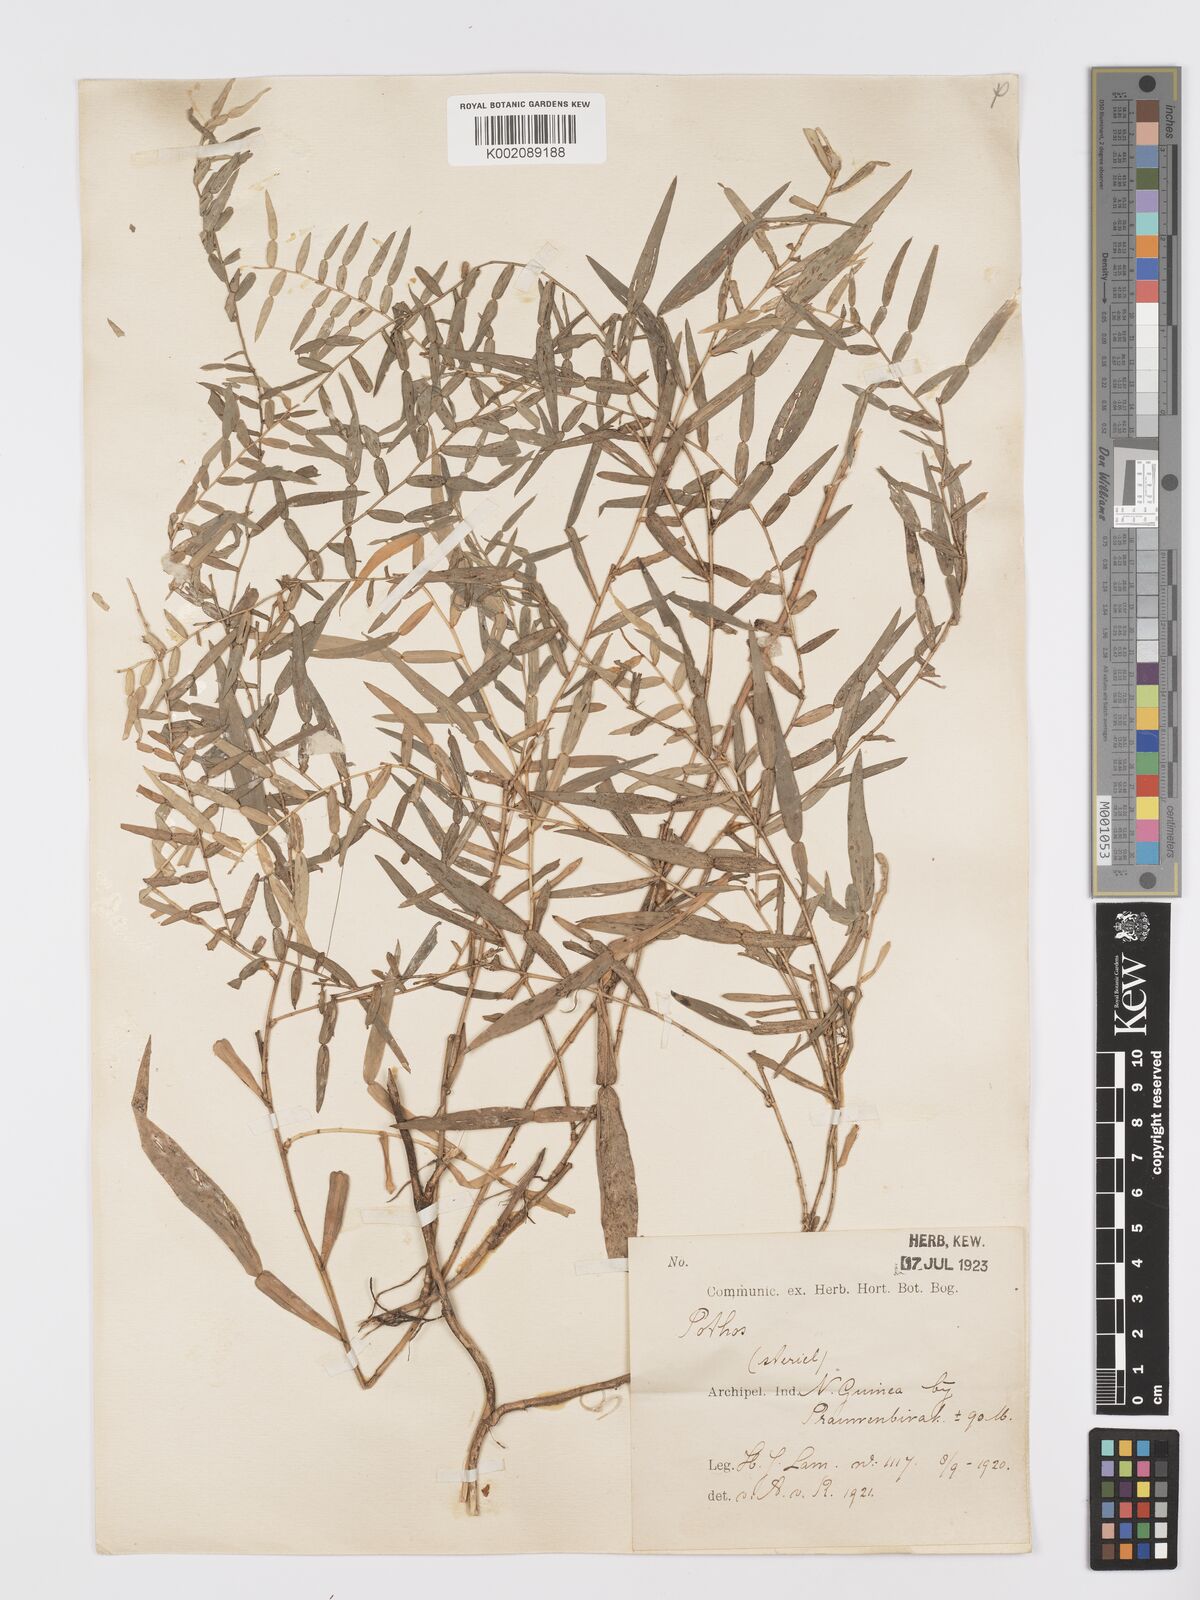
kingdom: Plantae
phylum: Tracheophyta
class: Liliopsida
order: Alismatales
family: Araceae
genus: Pothos
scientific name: Pothos
